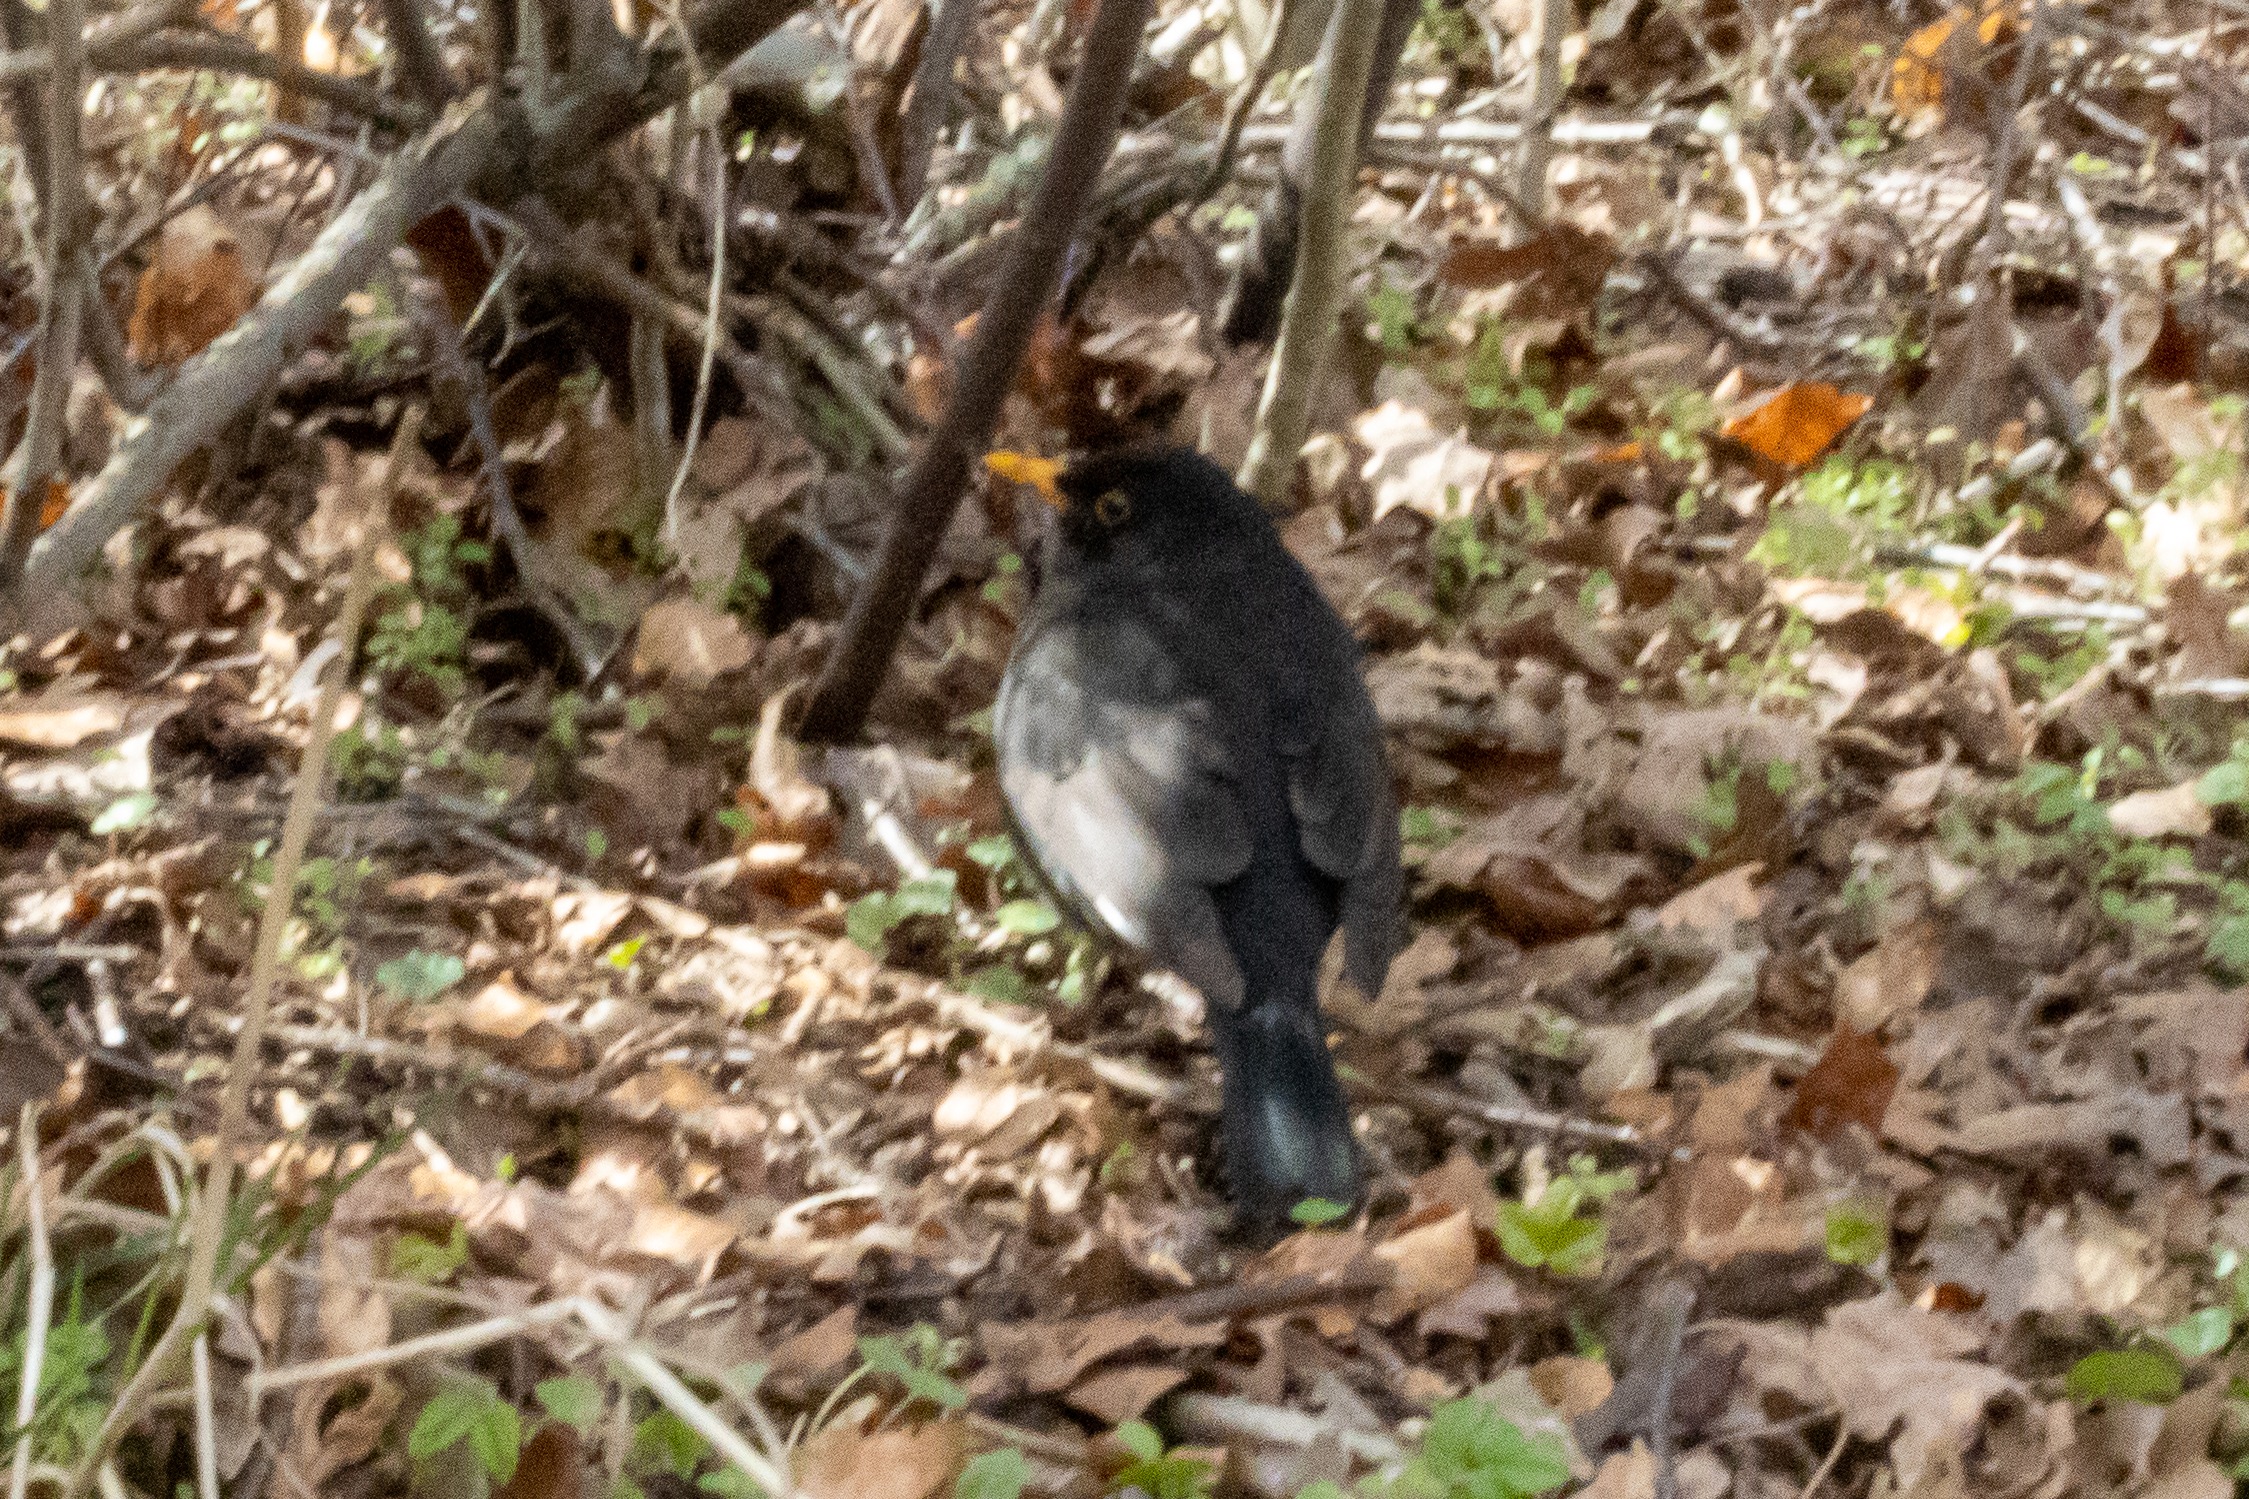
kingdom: Animalia
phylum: Chordata
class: Aves
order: Passeriformes
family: Turdidae
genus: Turdus
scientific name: Turdus merula
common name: Solsort
